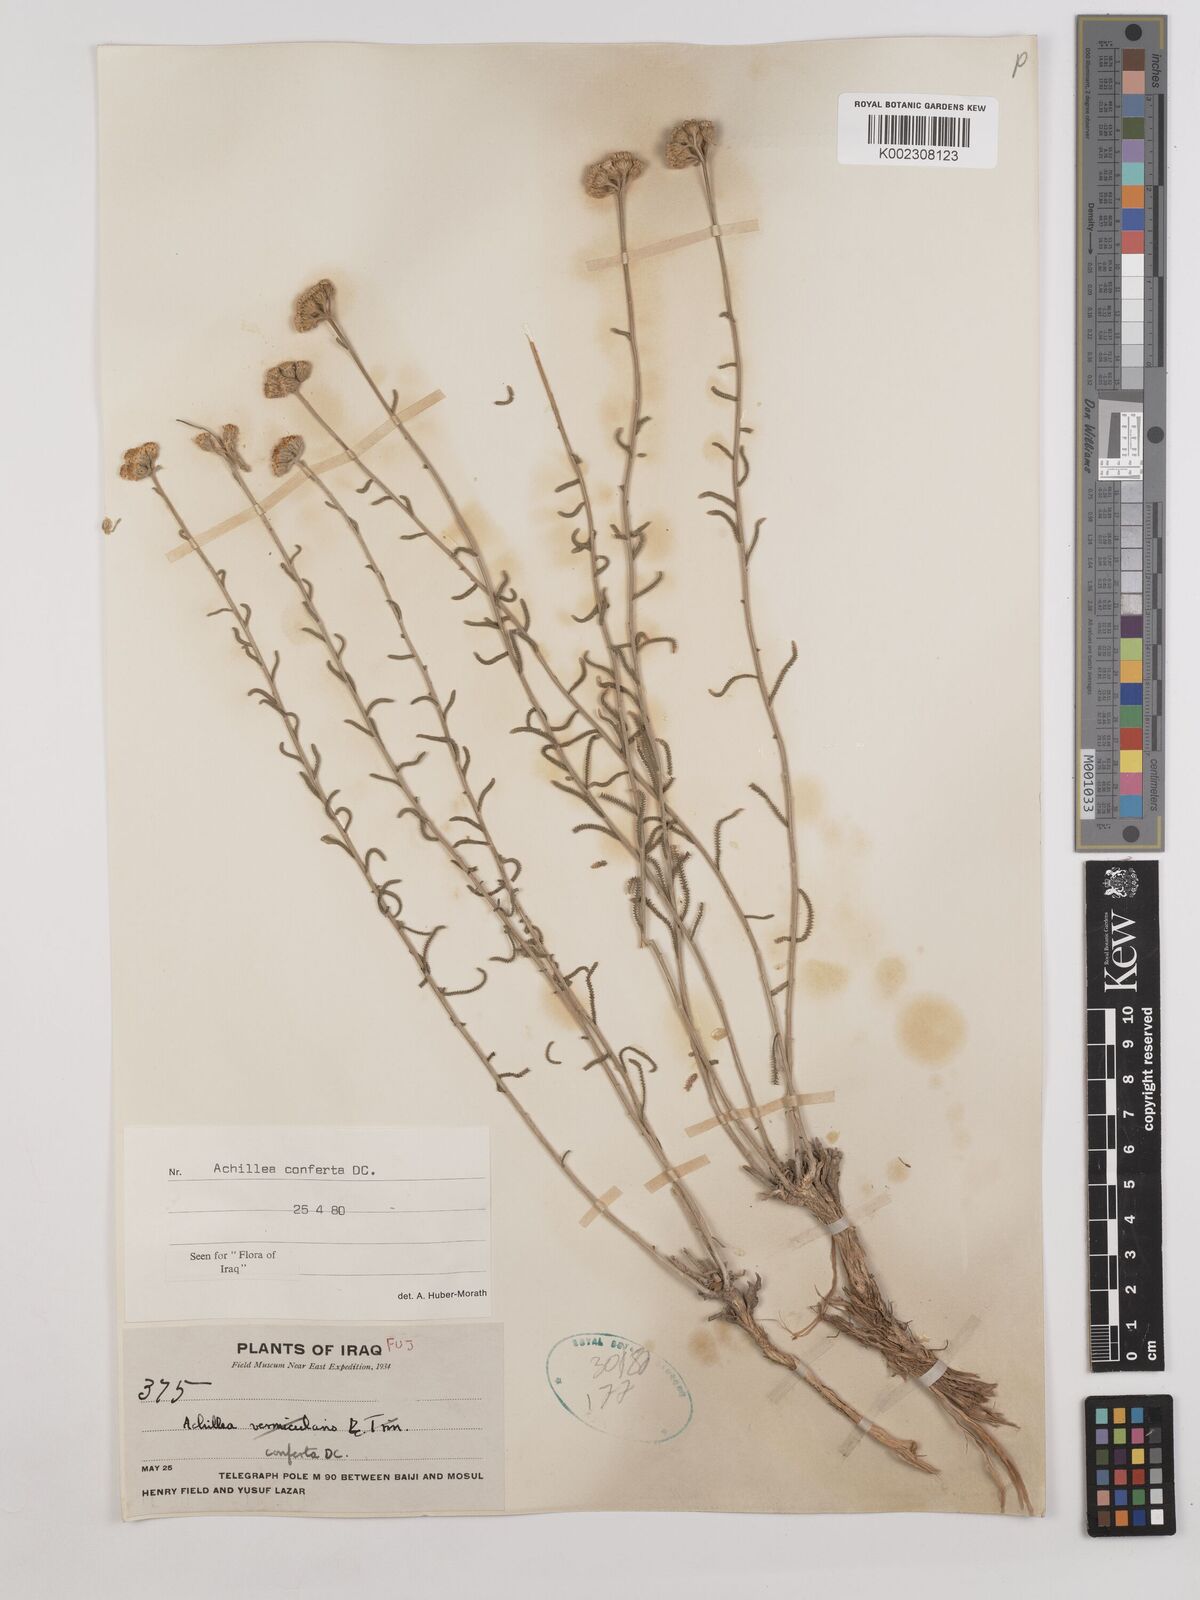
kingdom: Plantae
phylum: Tracheophyta
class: Magnoliopsida
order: Asterales
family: Asteraceae
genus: Achillea
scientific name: Achillea conferta
